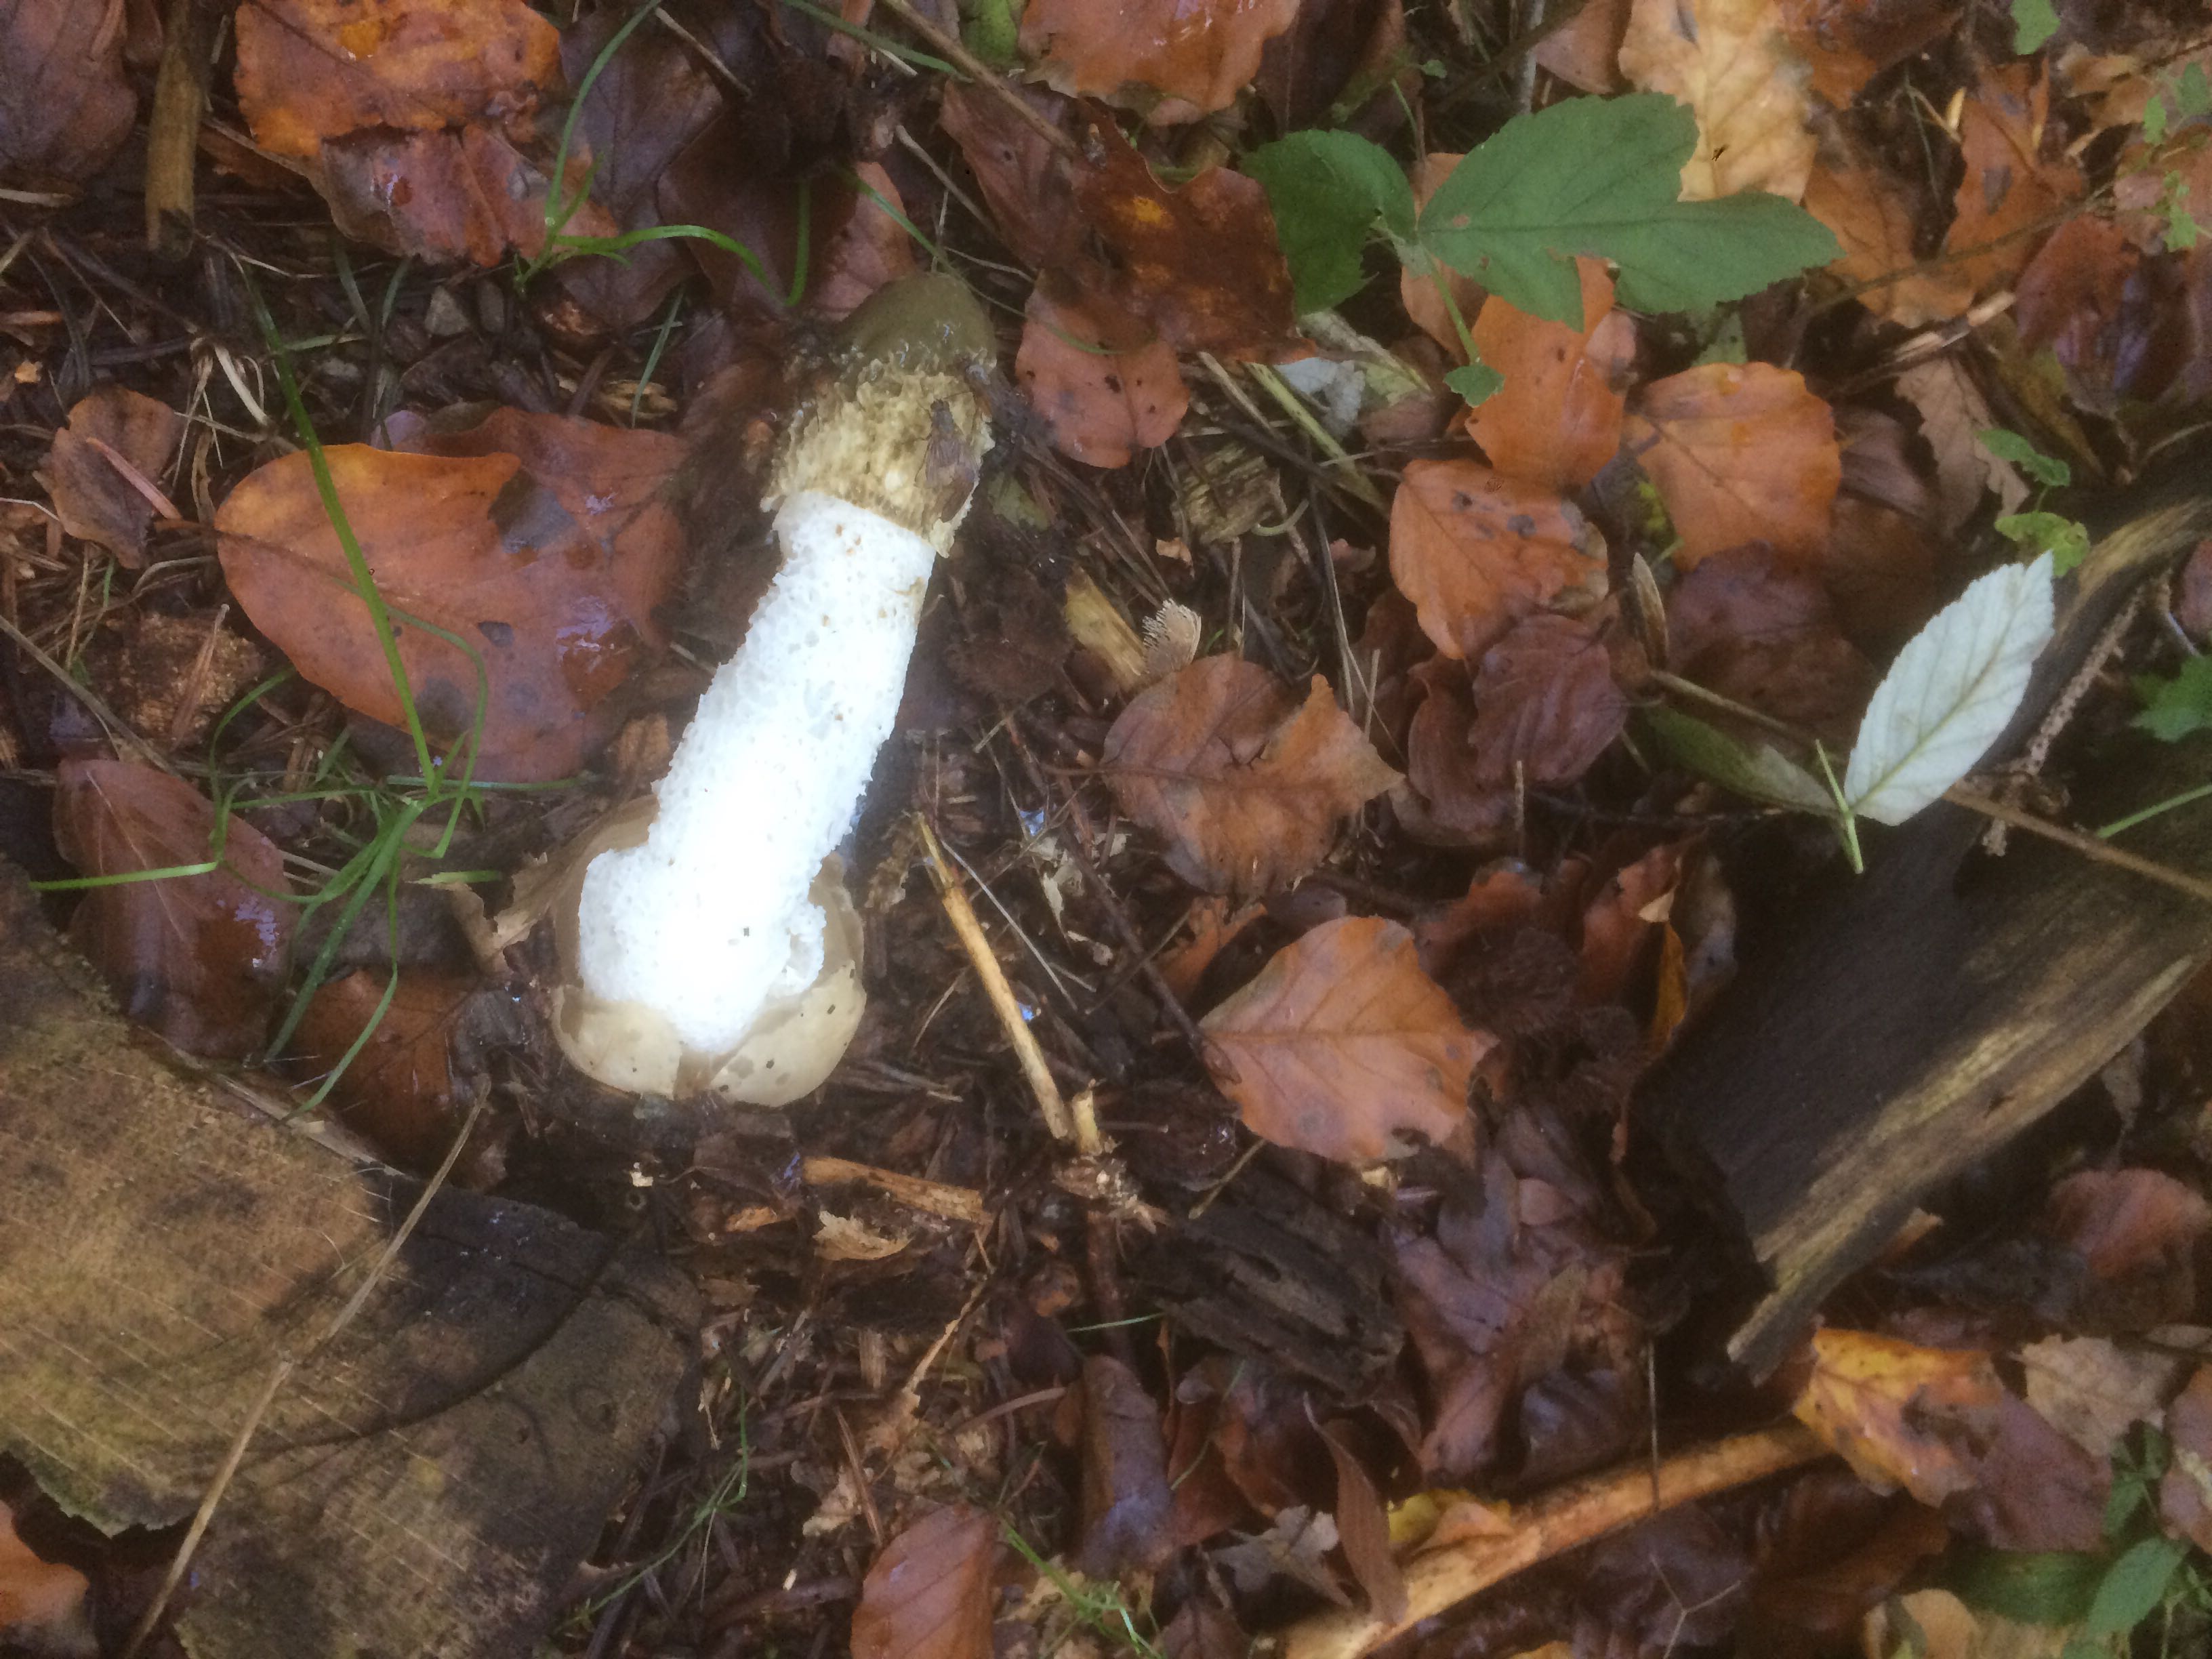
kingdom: Fungi
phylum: Basidiomycota
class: Agaricomycetes
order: Phallales
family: Phallaceae
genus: Phallus
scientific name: Phallus impudicus
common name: almindelig stinksvamp
